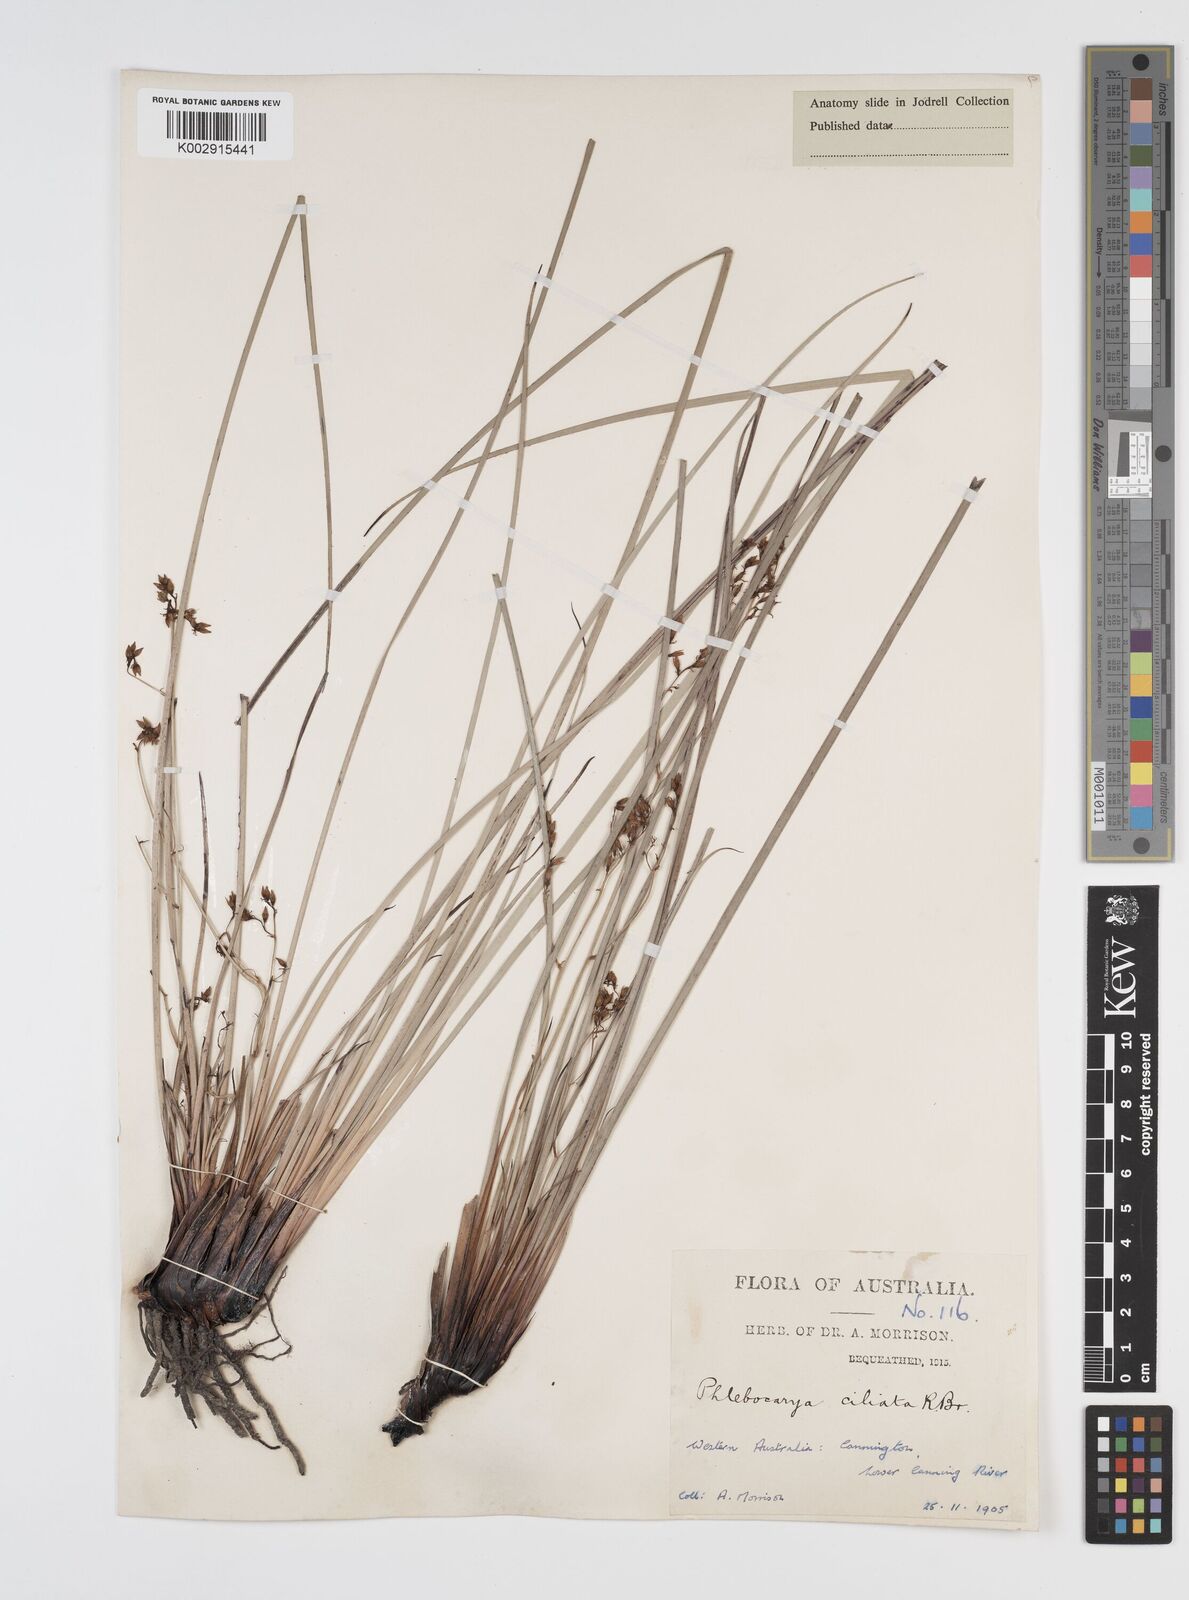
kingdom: Plantae
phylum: Tracheophyta
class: Liliopsida
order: Commelinales
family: Haemodoraceae
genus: Phlebocarya
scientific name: Phlebocarya ciliata
